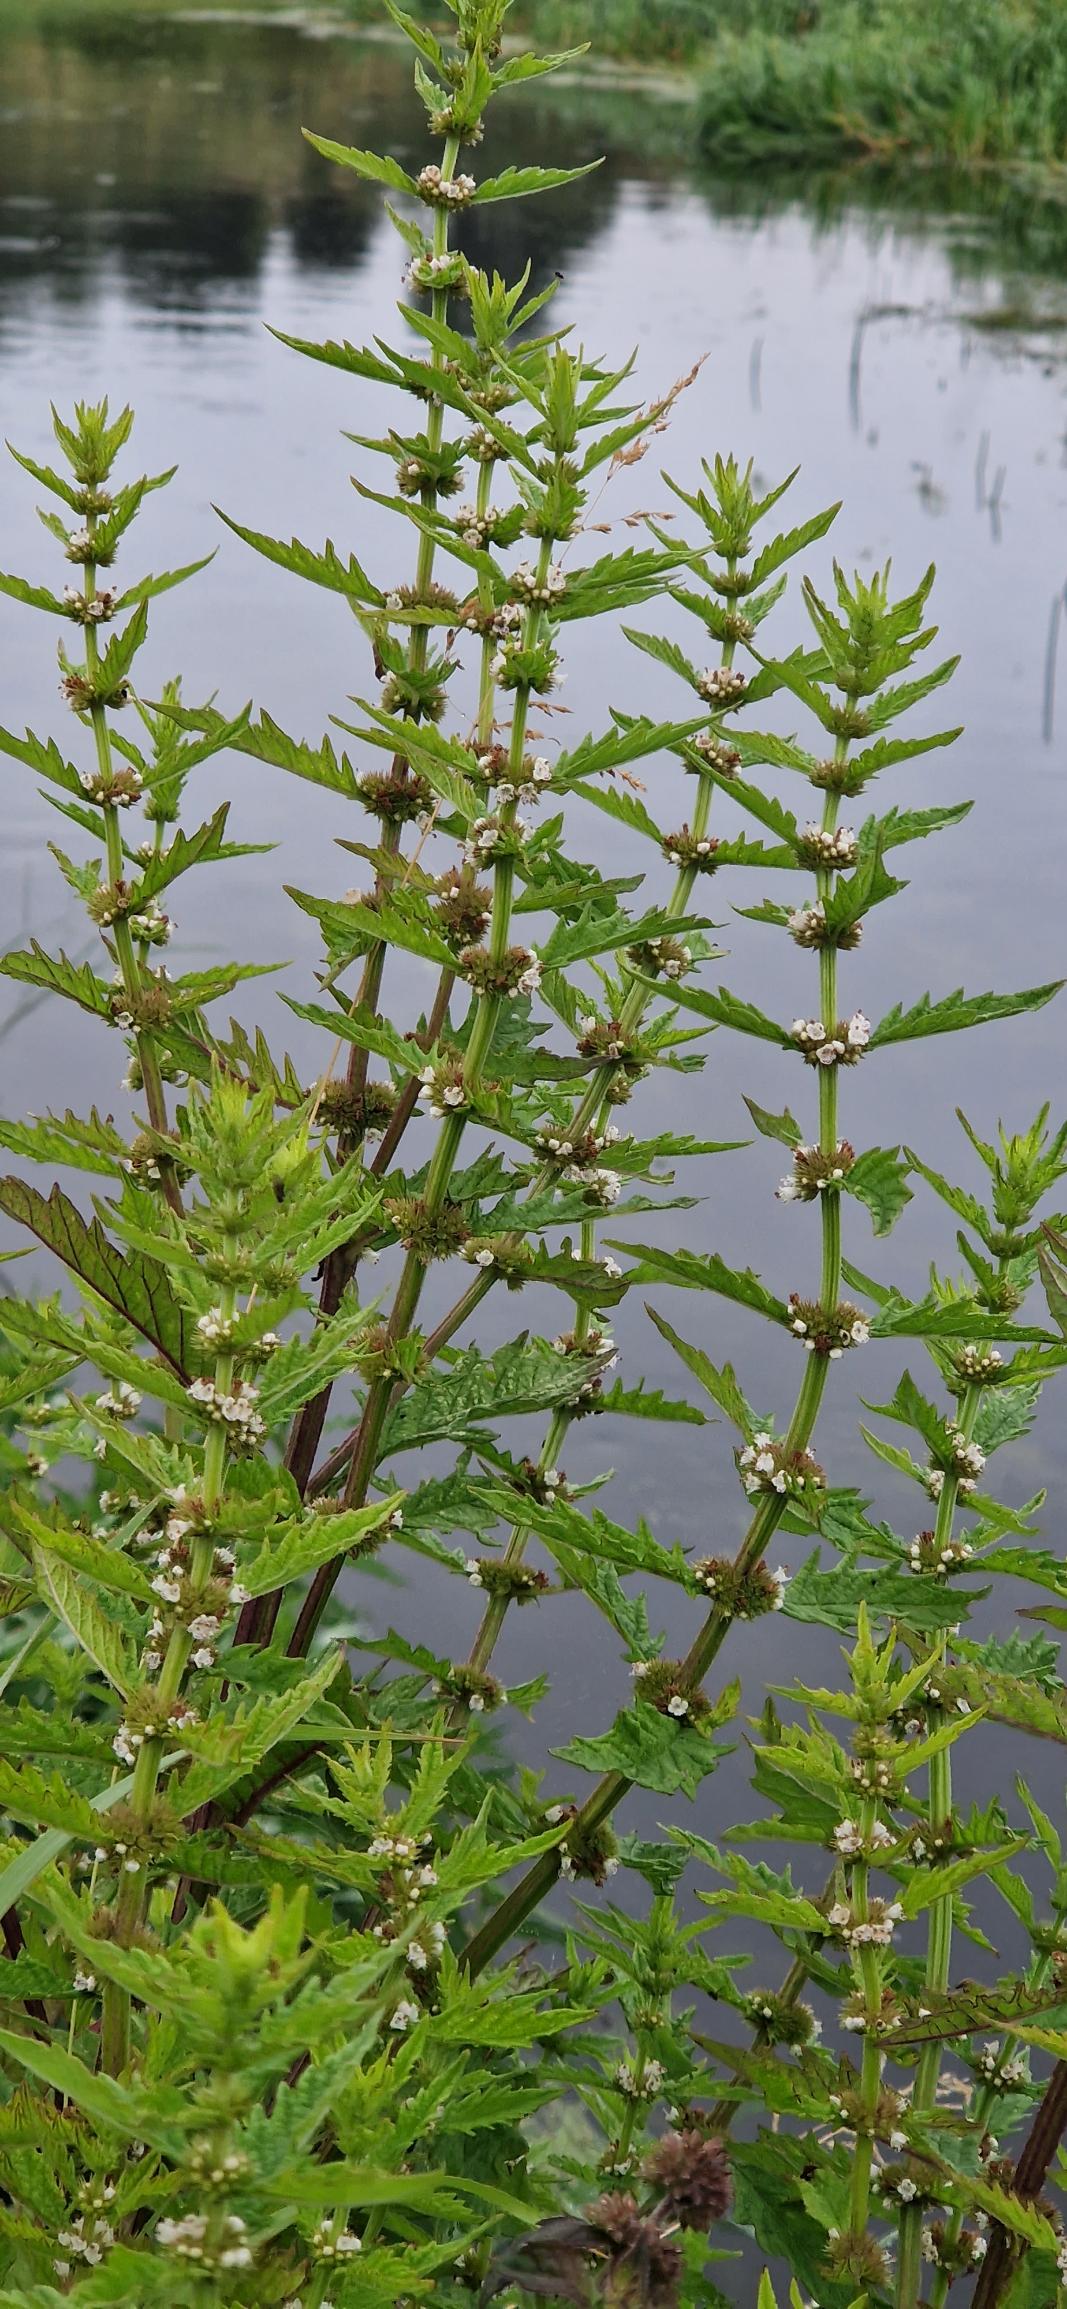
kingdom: Plantae
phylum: Tracheophyta
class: Magnoliopsida
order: Lamiales
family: Lamiaceae
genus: Lycopus
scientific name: Lycopus europaeus
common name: Sværtevæld
